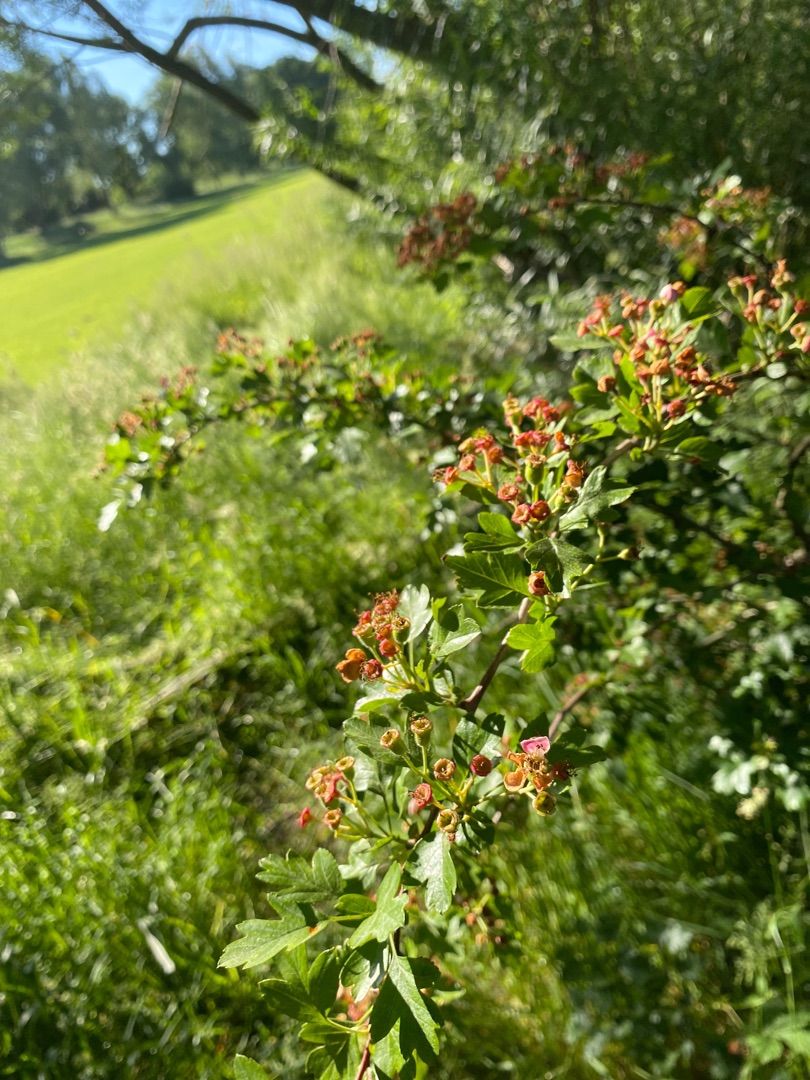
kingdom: Plantae
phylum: Tracheophyta
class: Magnoliopsida
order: Rosales
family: Rosaceae
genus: Crataegus
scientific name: Crataegus monogyna
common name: Engriflet hvidtjørn
